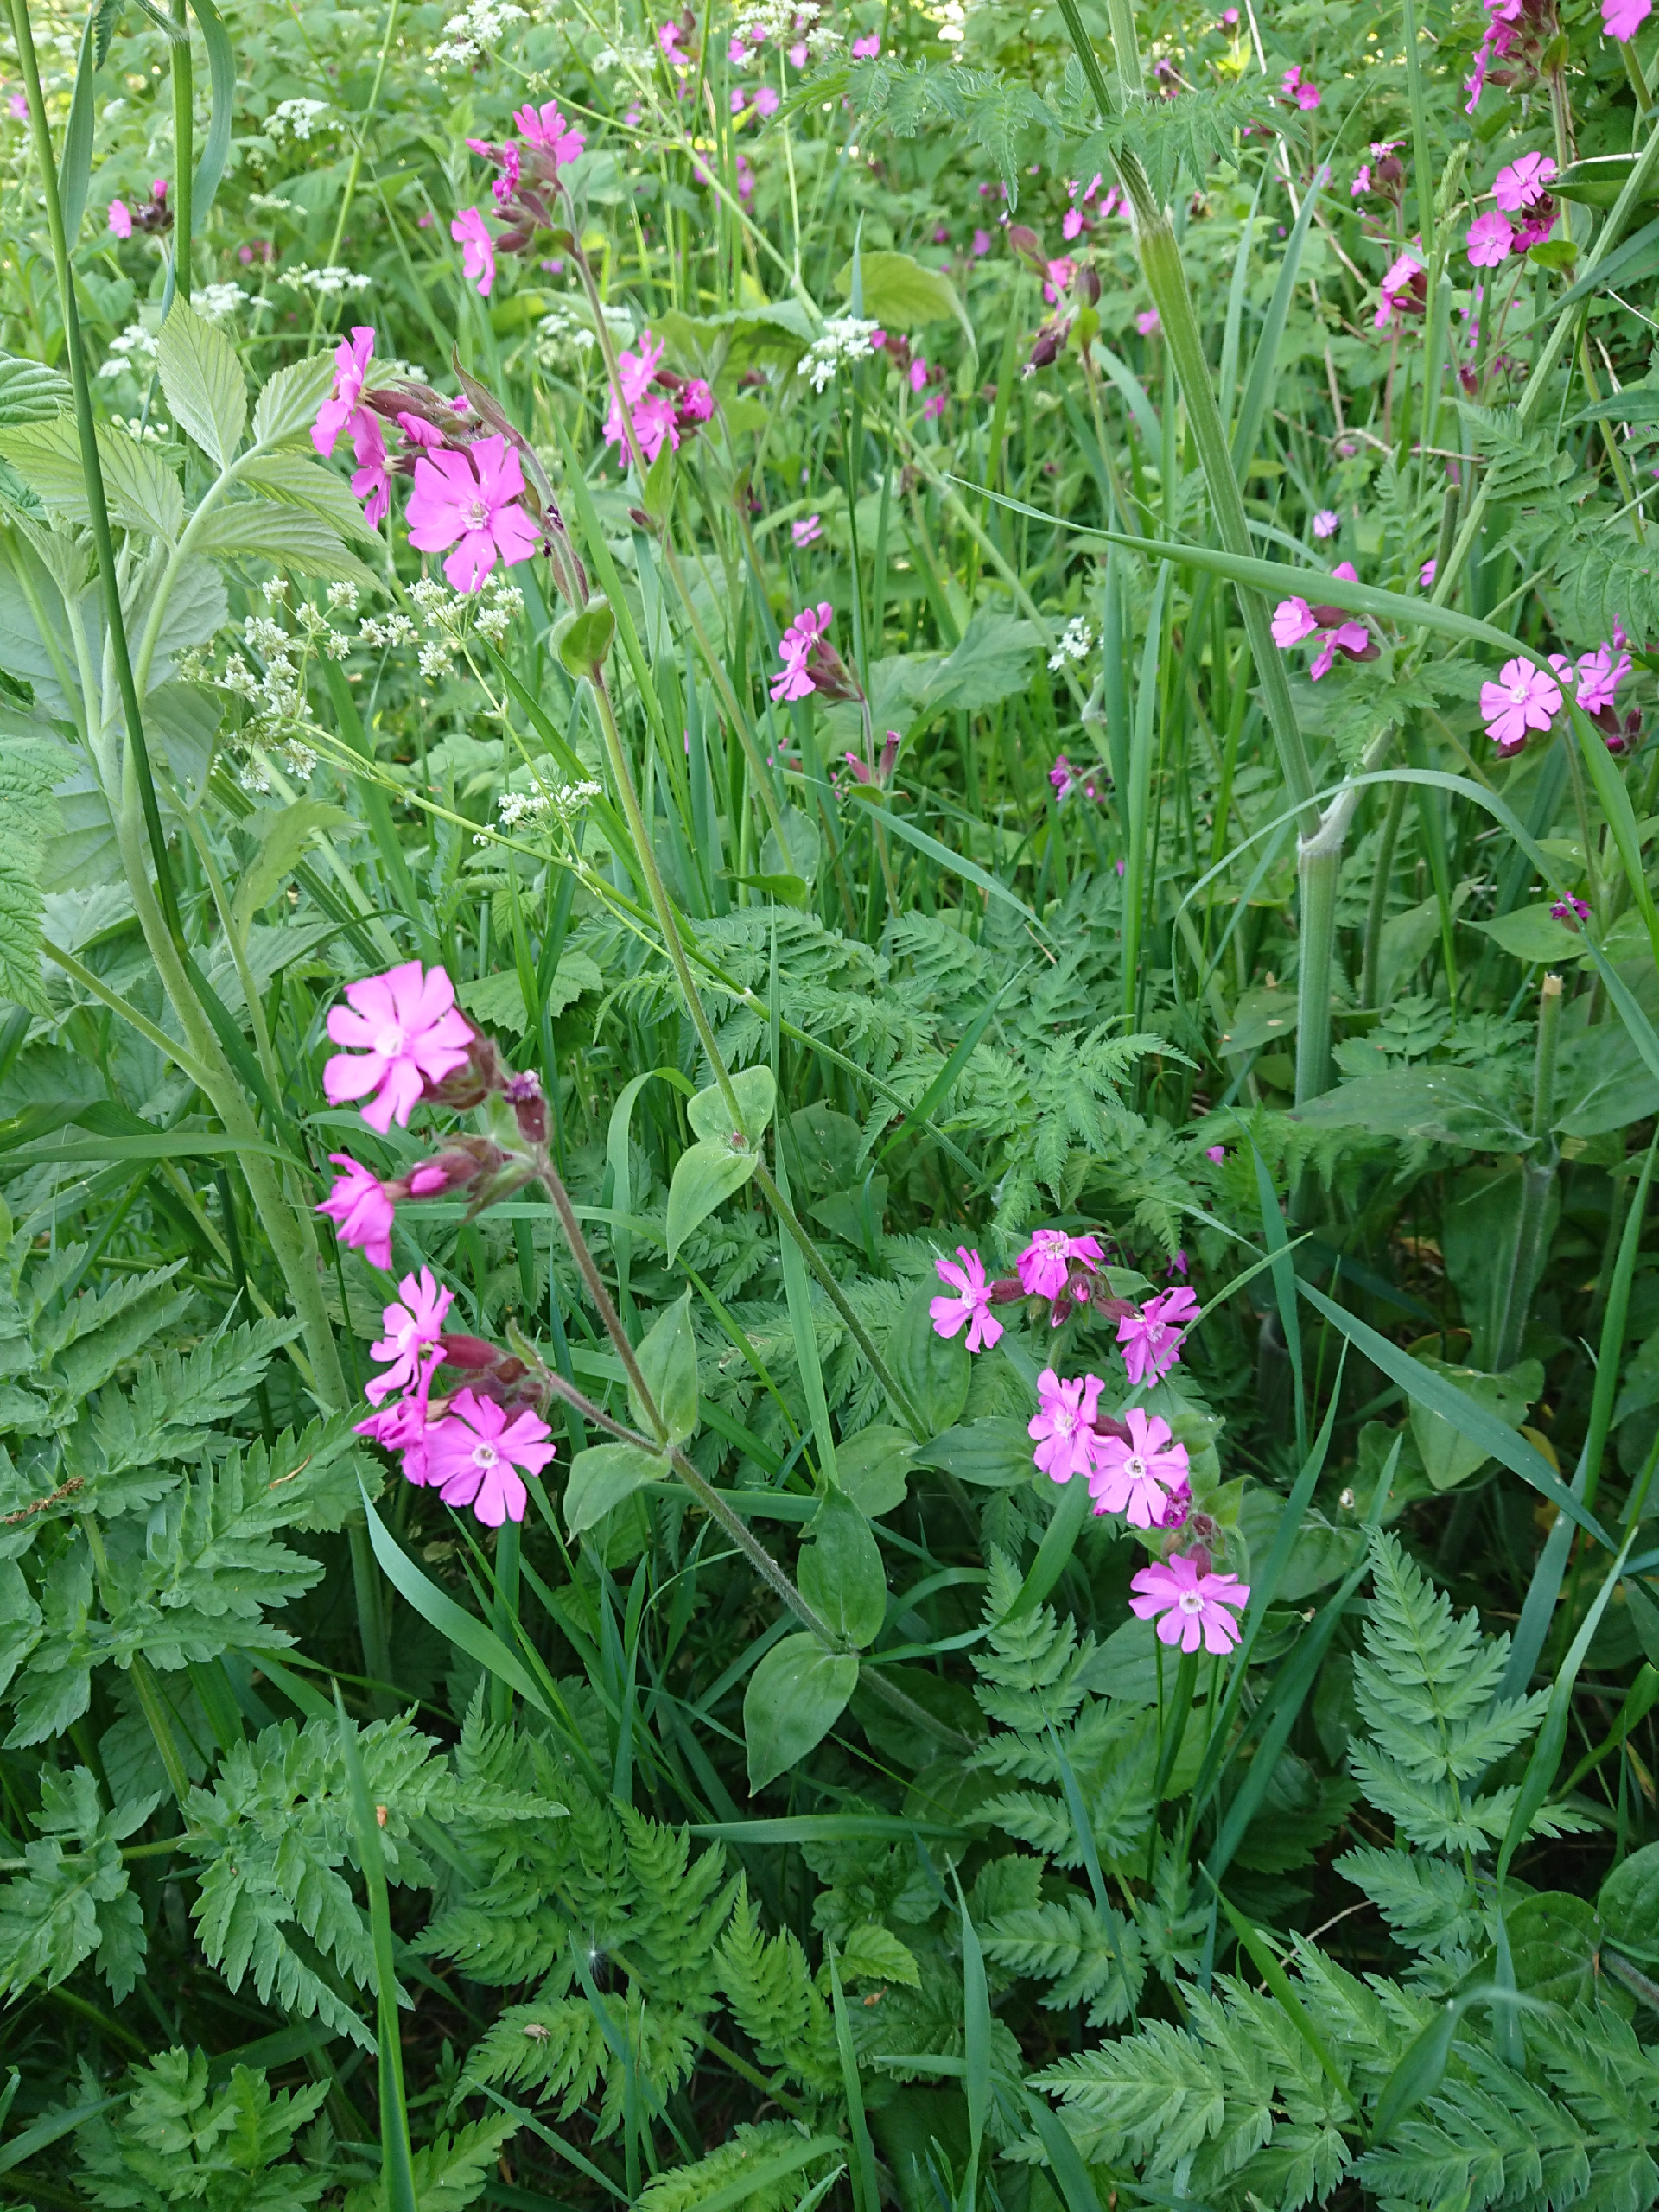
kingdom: Plantae
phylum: Tracheophyta
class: Magnoliopsida
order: Caryophyllales
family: Caryophyllaceae
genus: Silene
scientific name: Silene dioica
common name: Dagpragtstjerne
